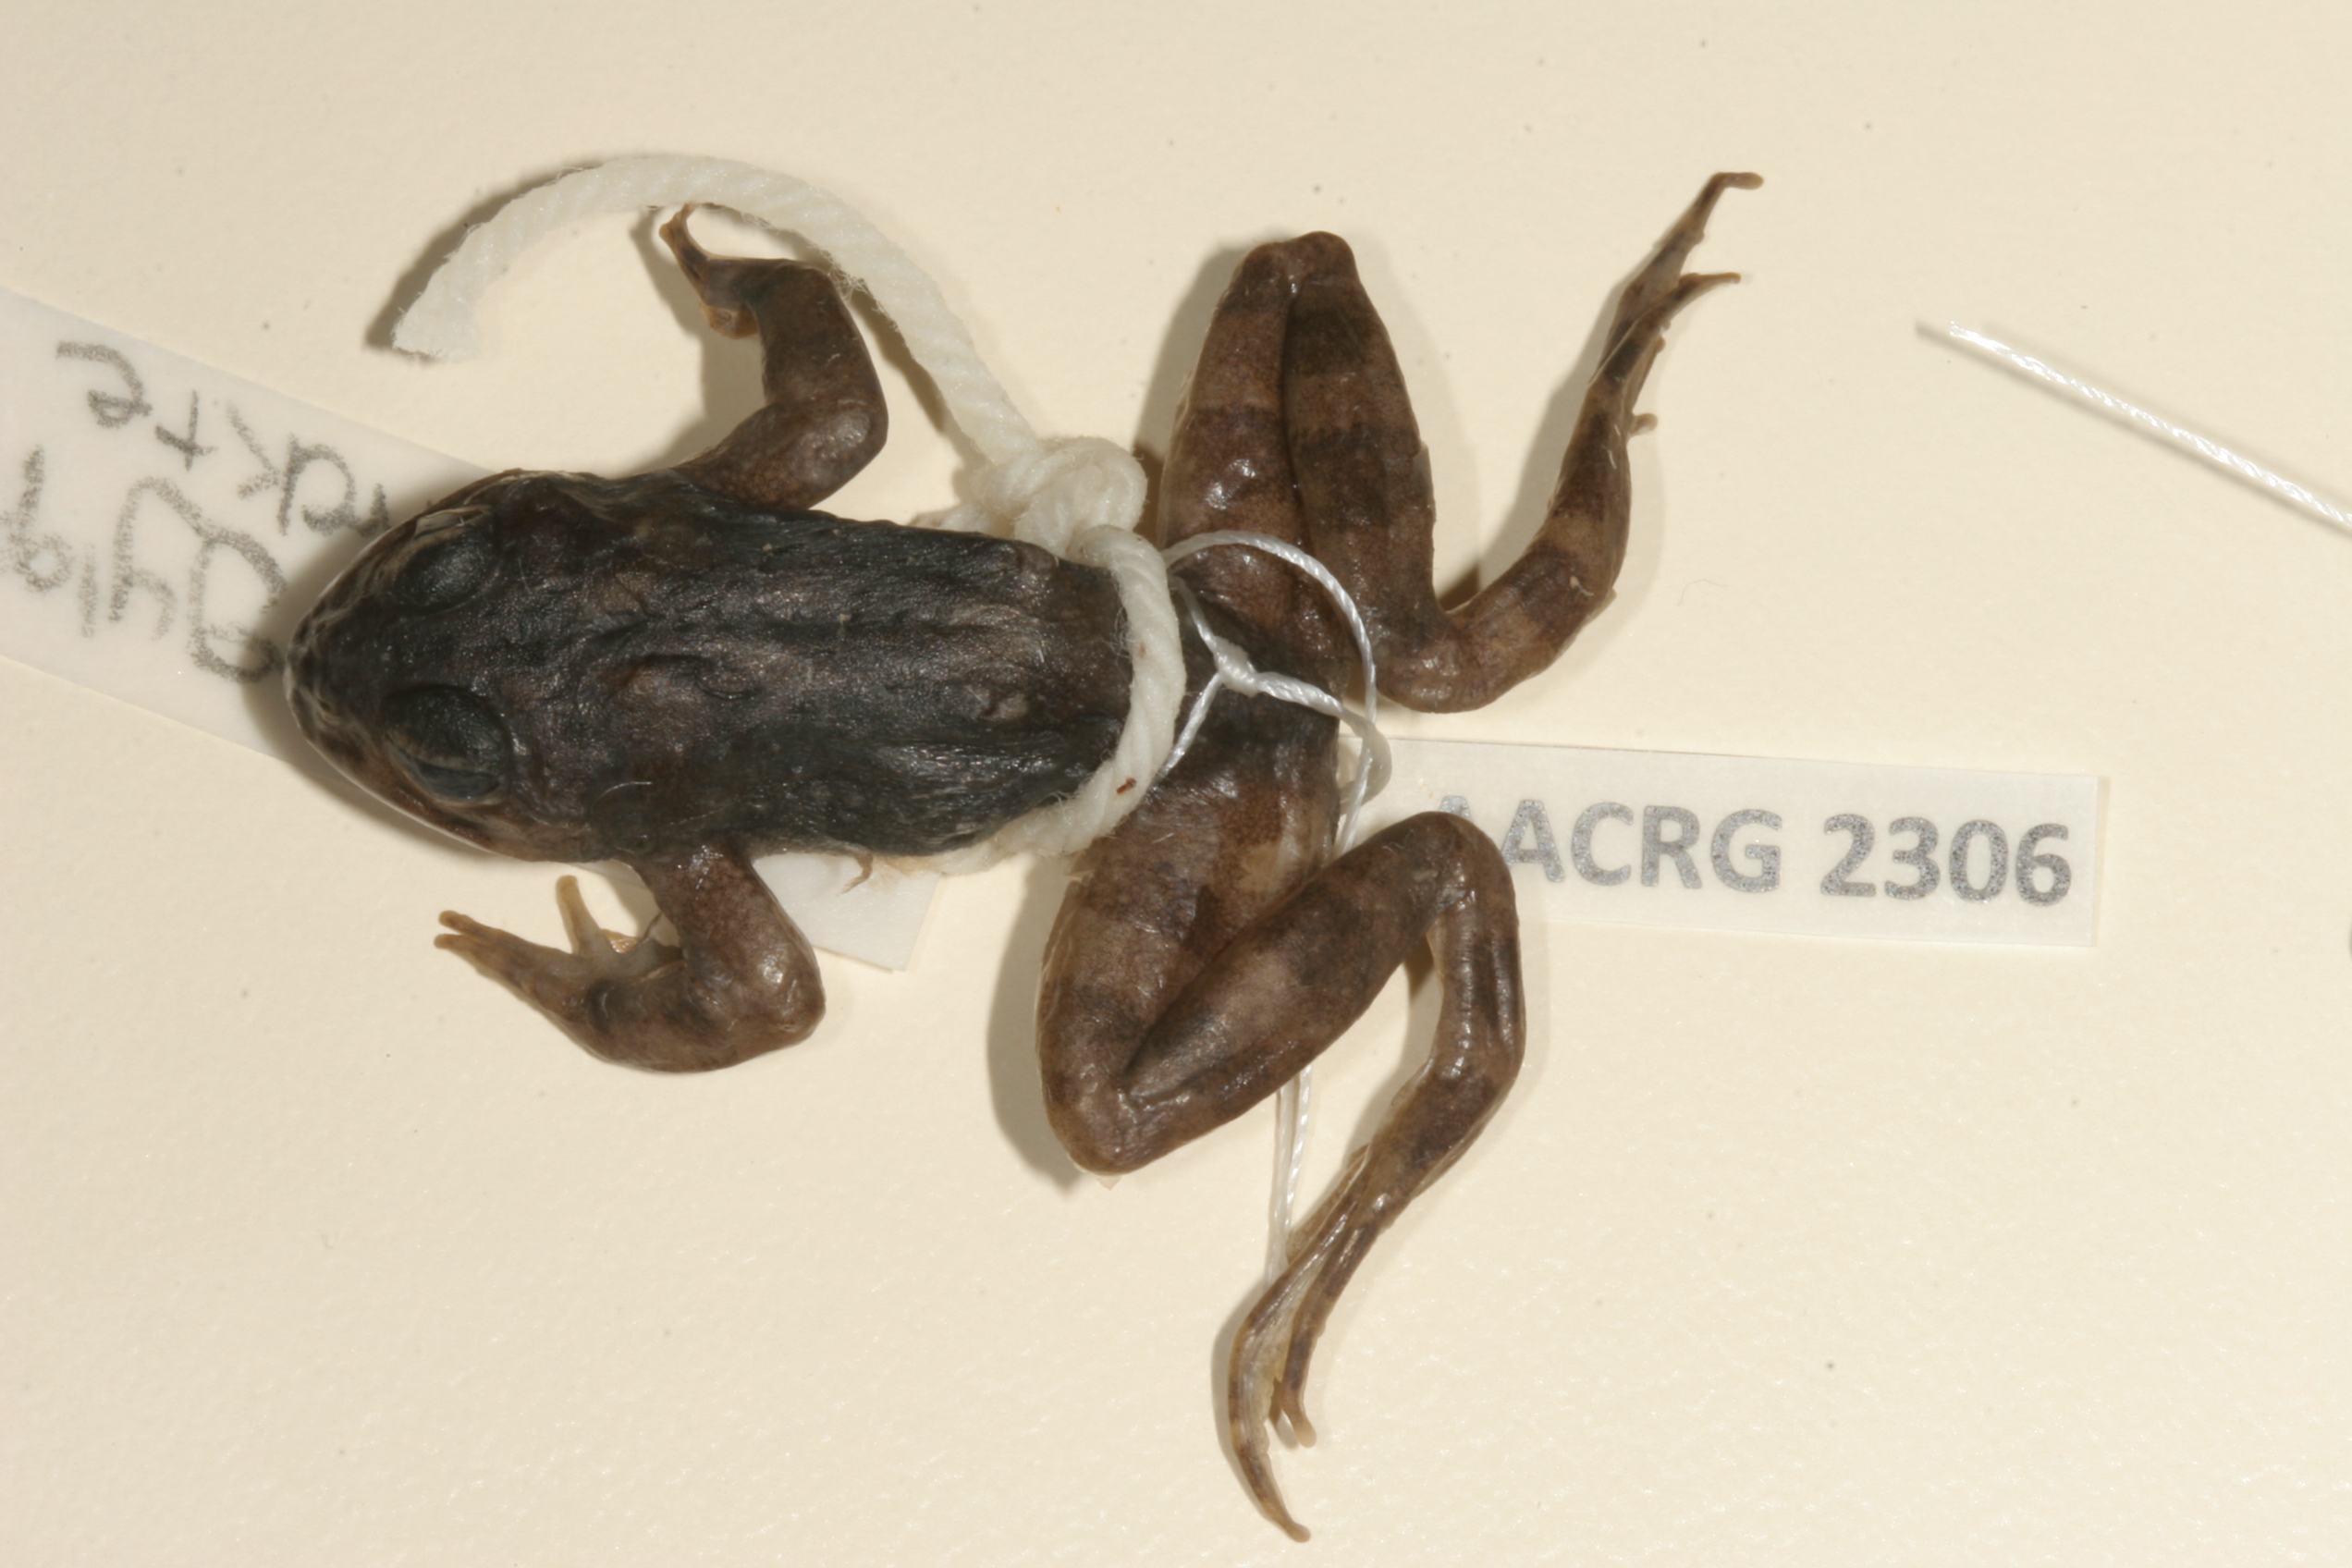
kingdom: Animalia
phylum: Chordata
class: Amphibia
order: Anura
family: Pyxicephalidae
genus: Amietia
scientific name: Amietia vertebralis
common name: Drakensberg stream frog
